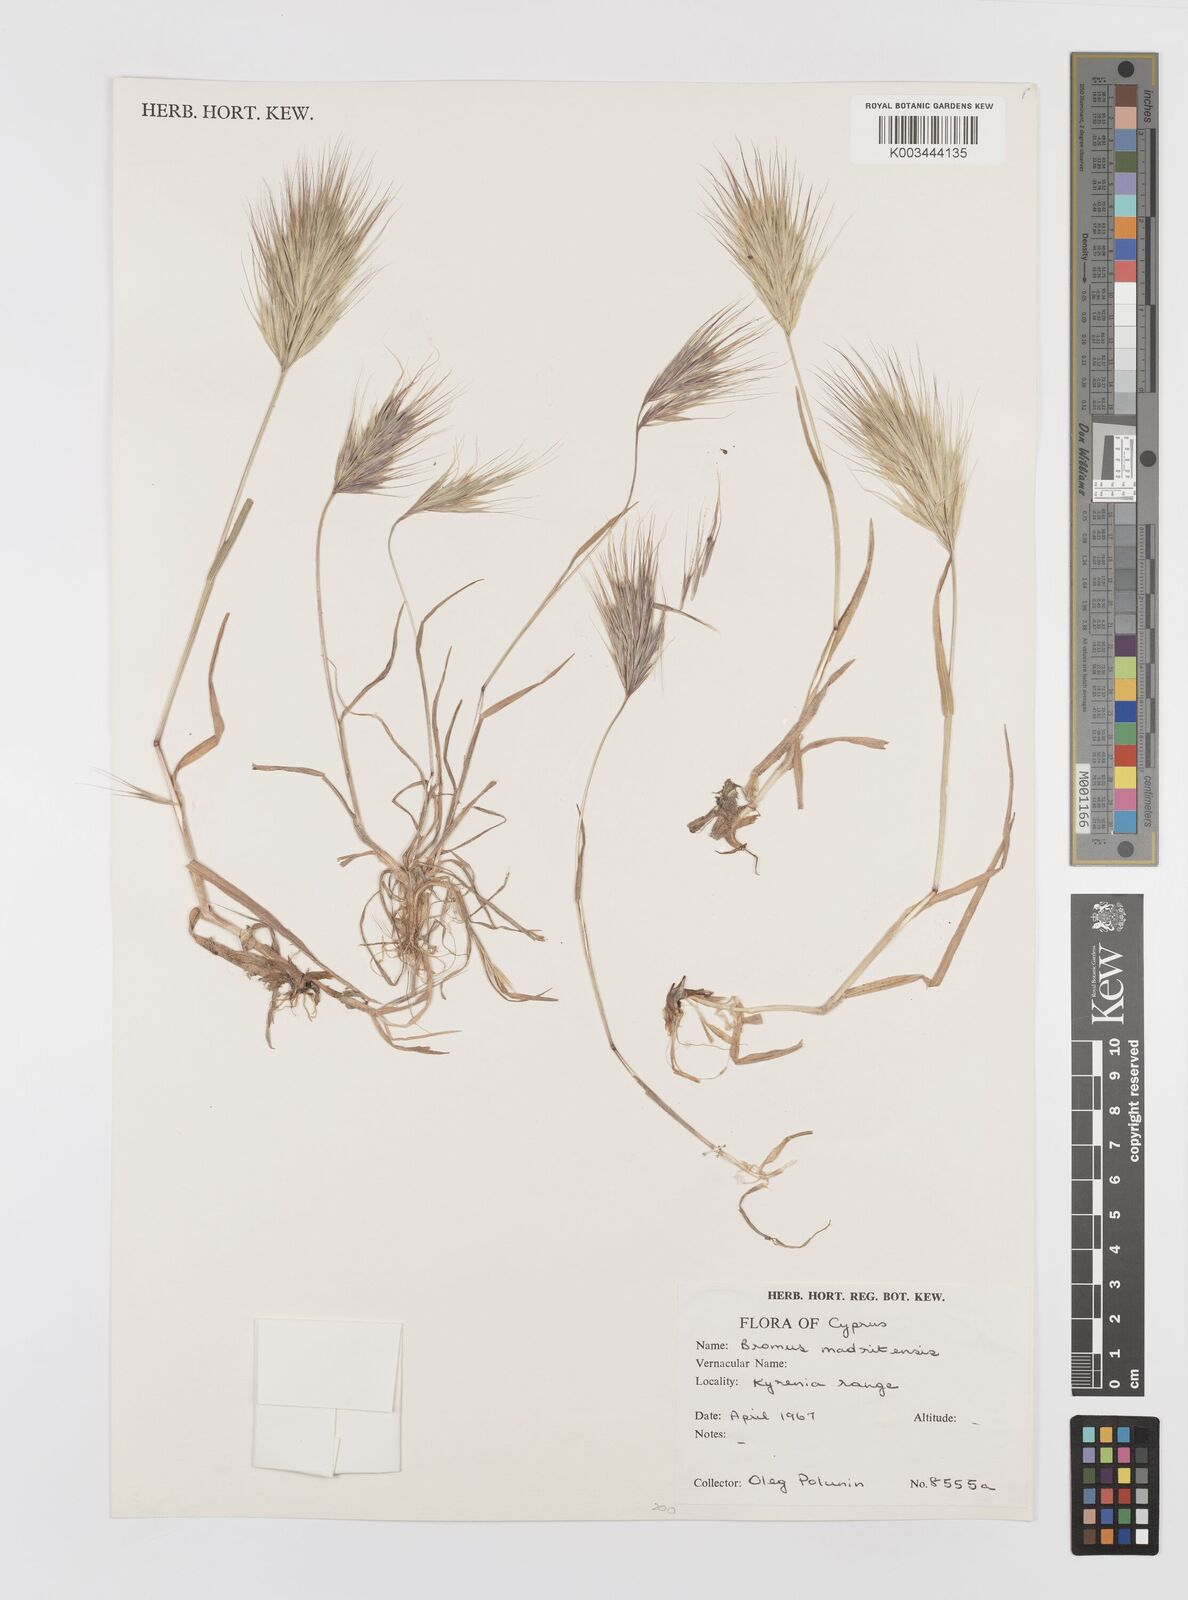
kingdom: Plantae
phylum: Tracheophyta
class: Liliopsida
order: Poales
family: Poaceae
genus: Bromus
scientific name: Bromus madritensis
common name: Compact brome
